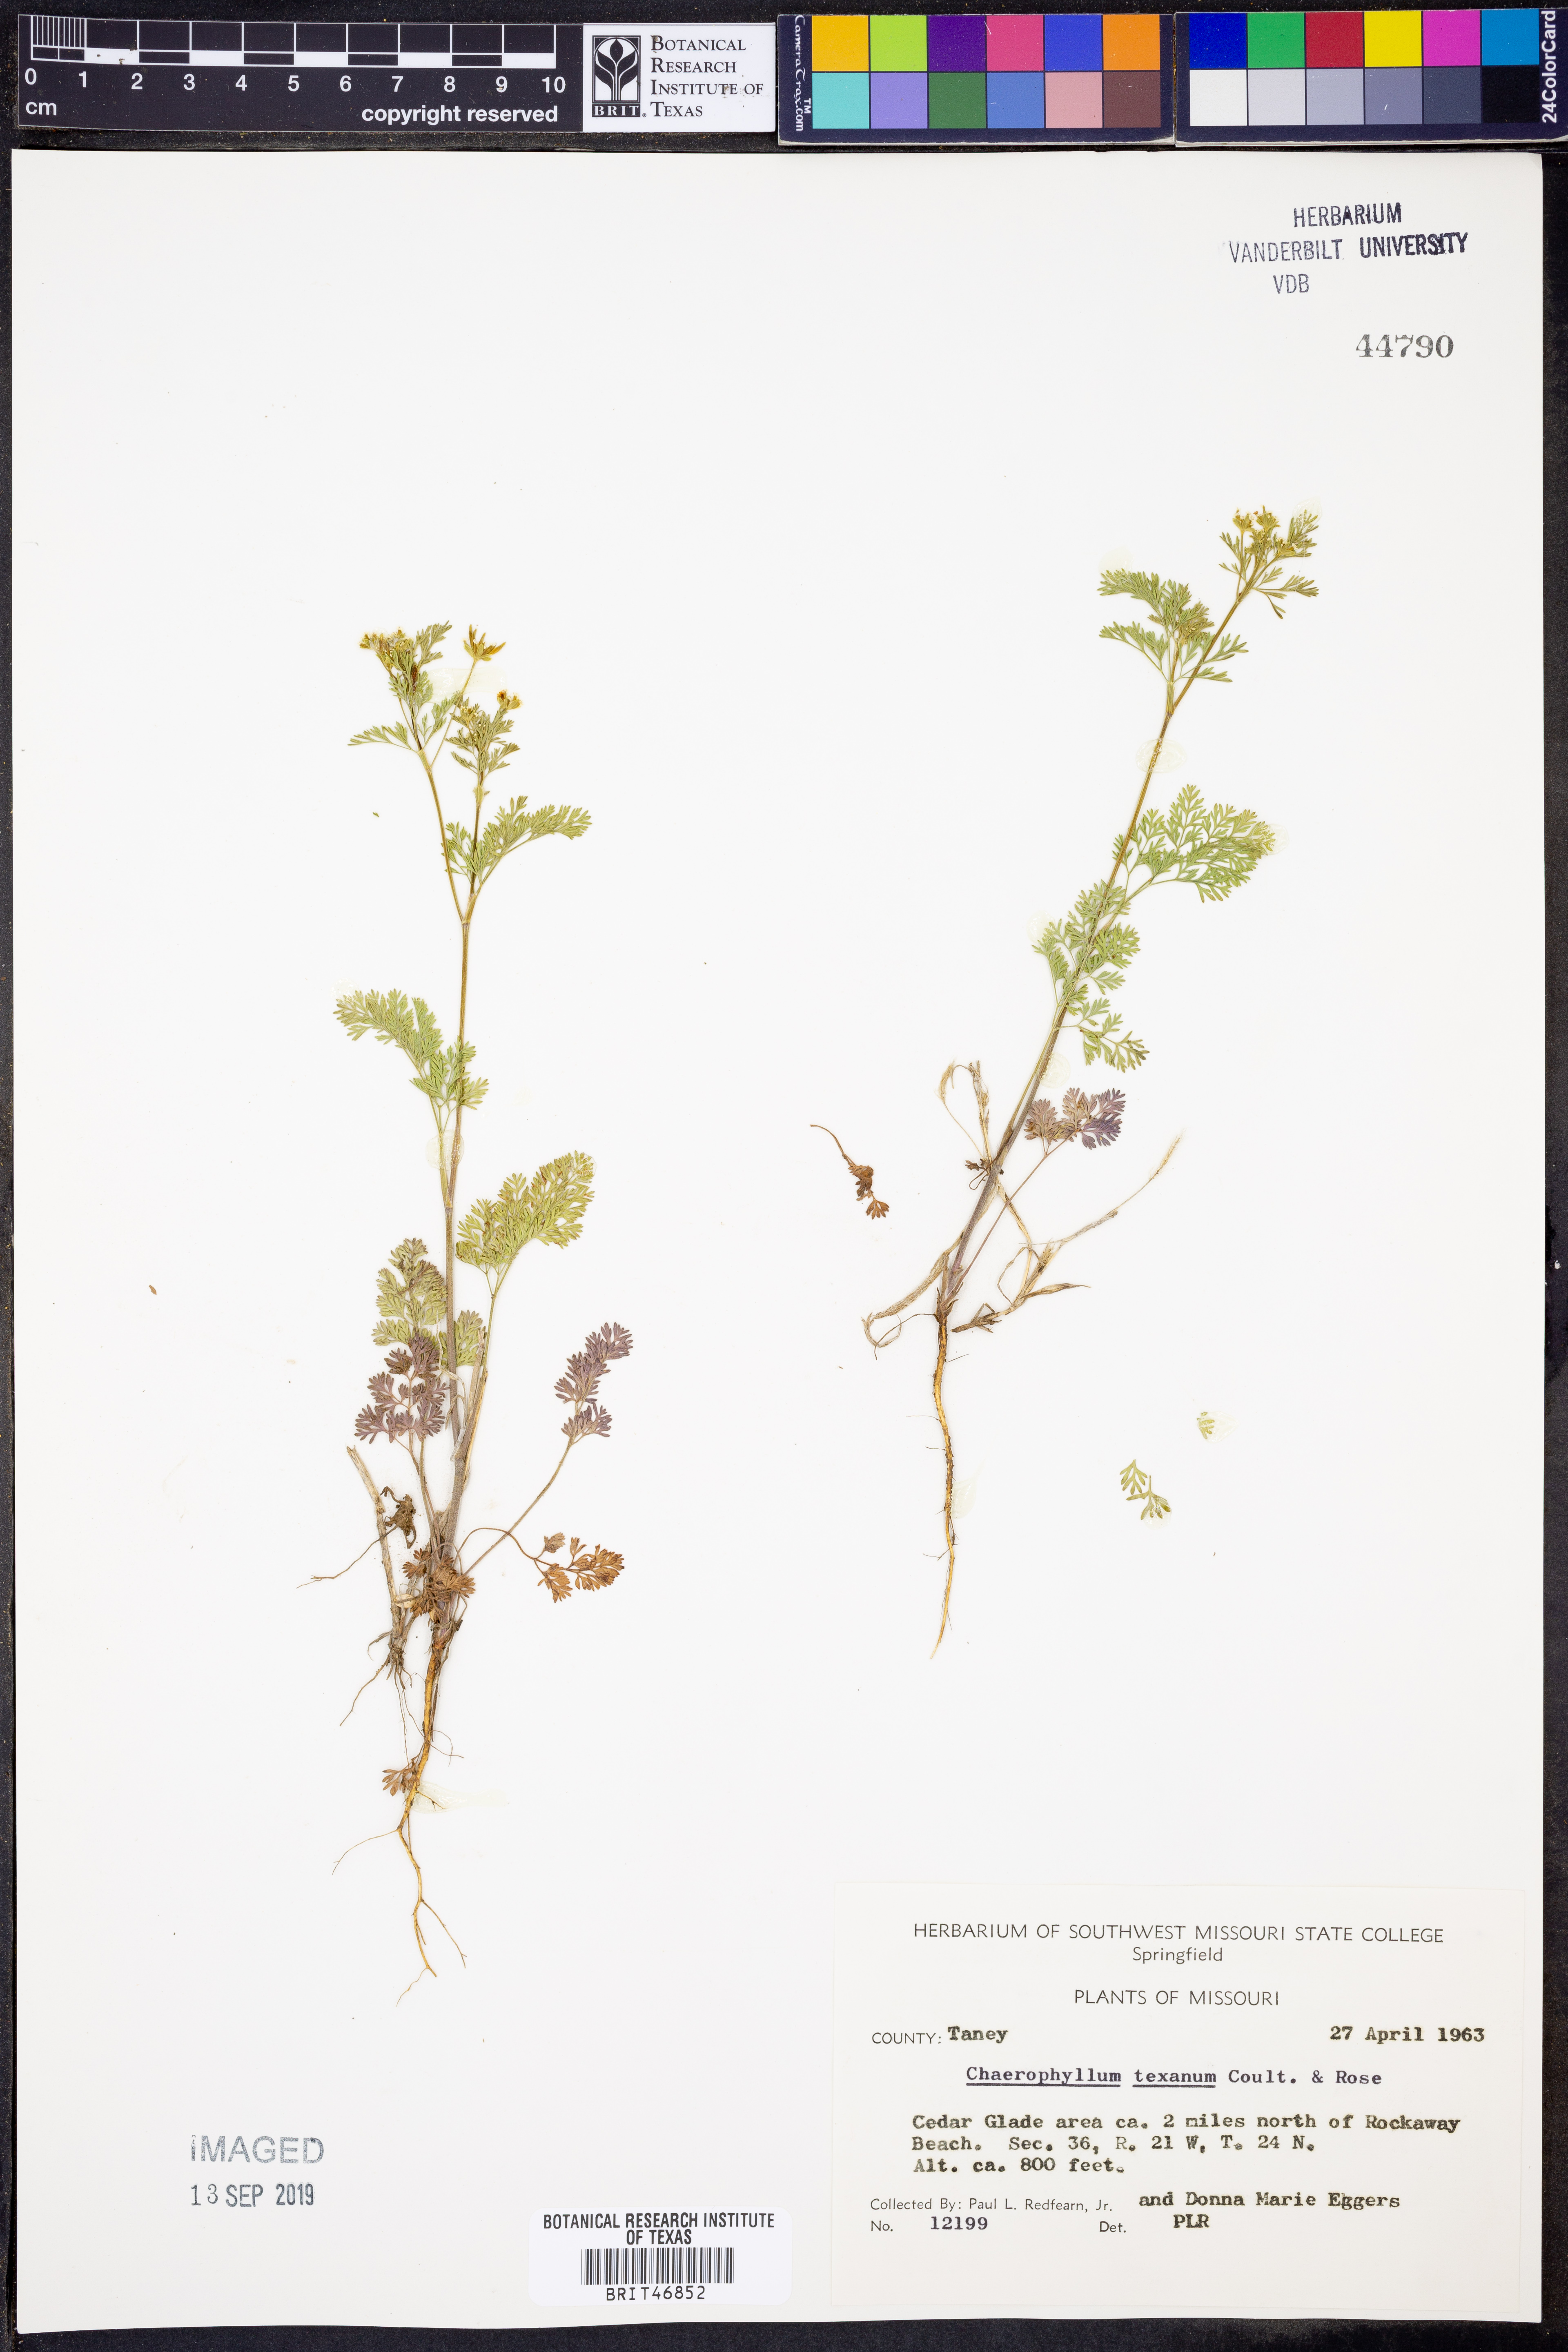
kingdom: Plantae
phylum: Tracheophyta
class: Magnoliopsida
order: Apiales
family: Apiaceae
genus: Chaerophyllum
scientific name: Chaerophyllum tainturieri
